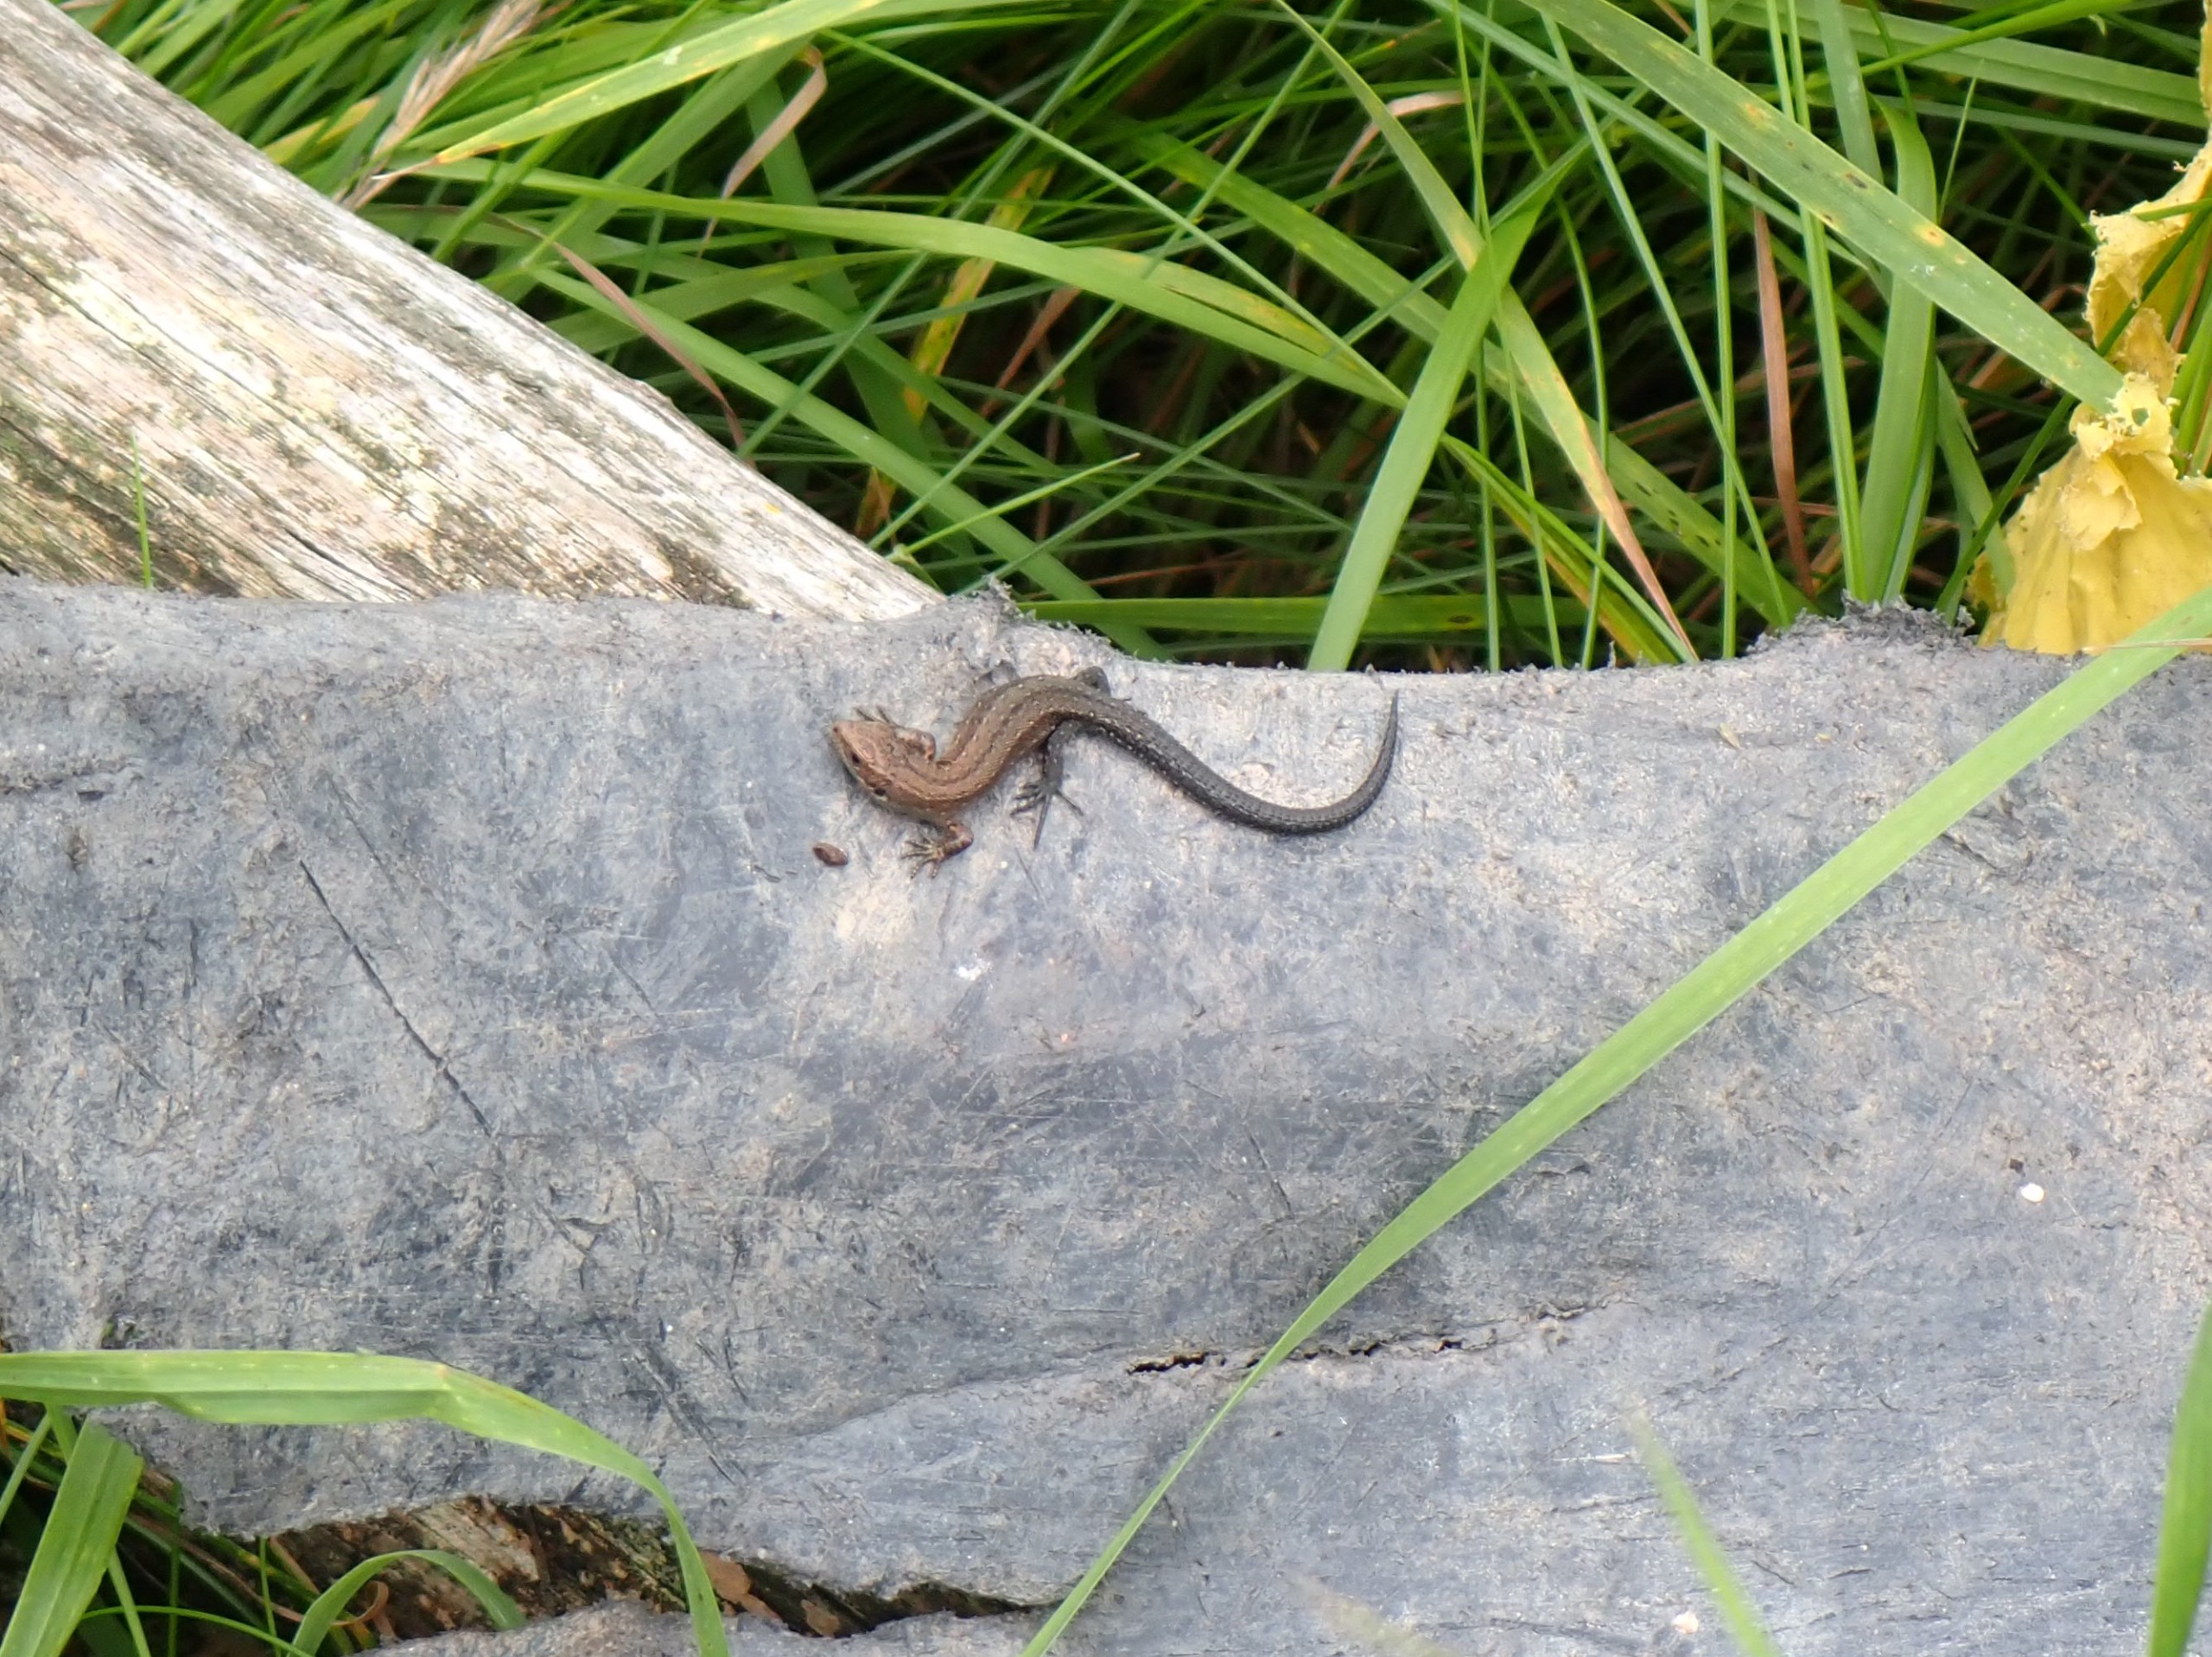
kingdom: Animalia
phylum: Chordata
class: Squamata
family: Lacertidae
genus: Zootoca
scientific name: Zootoca vivipara
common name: Skovfirben
